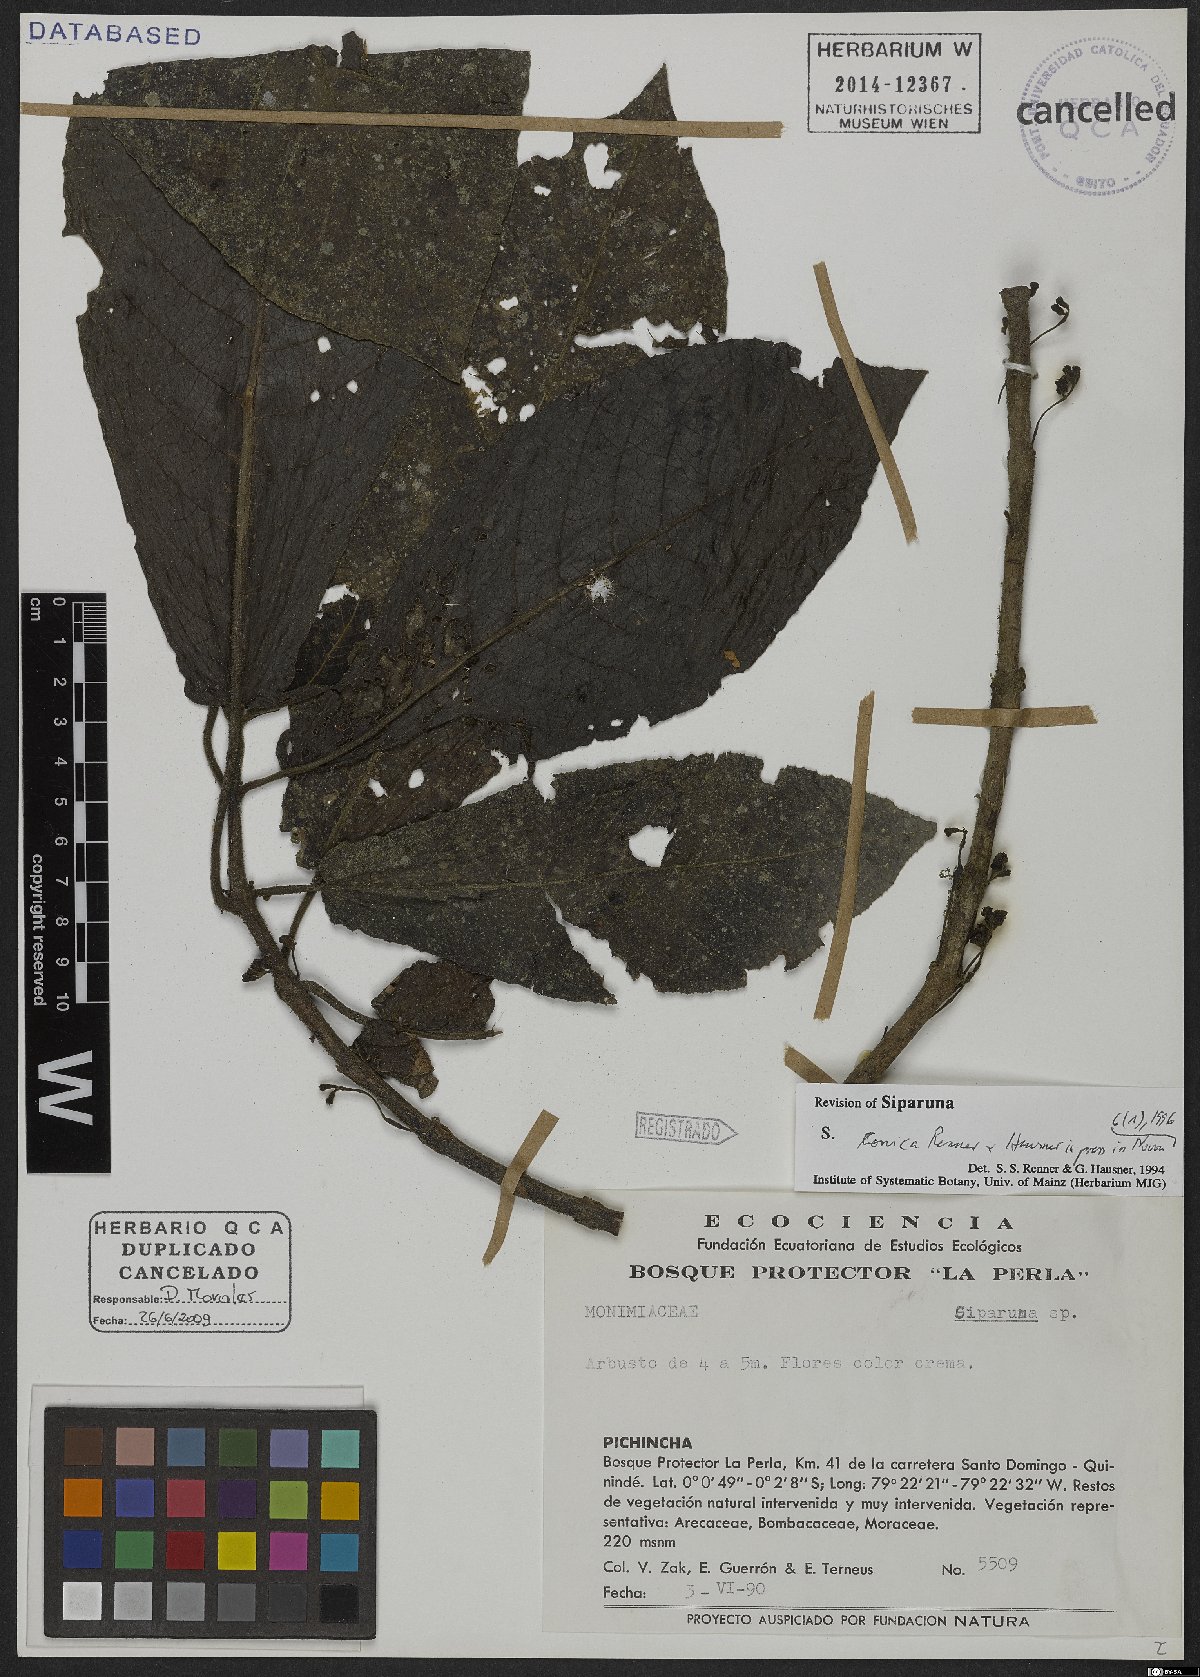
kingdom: Plantae
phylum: Tracheophyta
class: Magnoliopsida
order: Laurales
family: Siparunaceae
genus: Siparuna
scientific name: Siparuna conica
